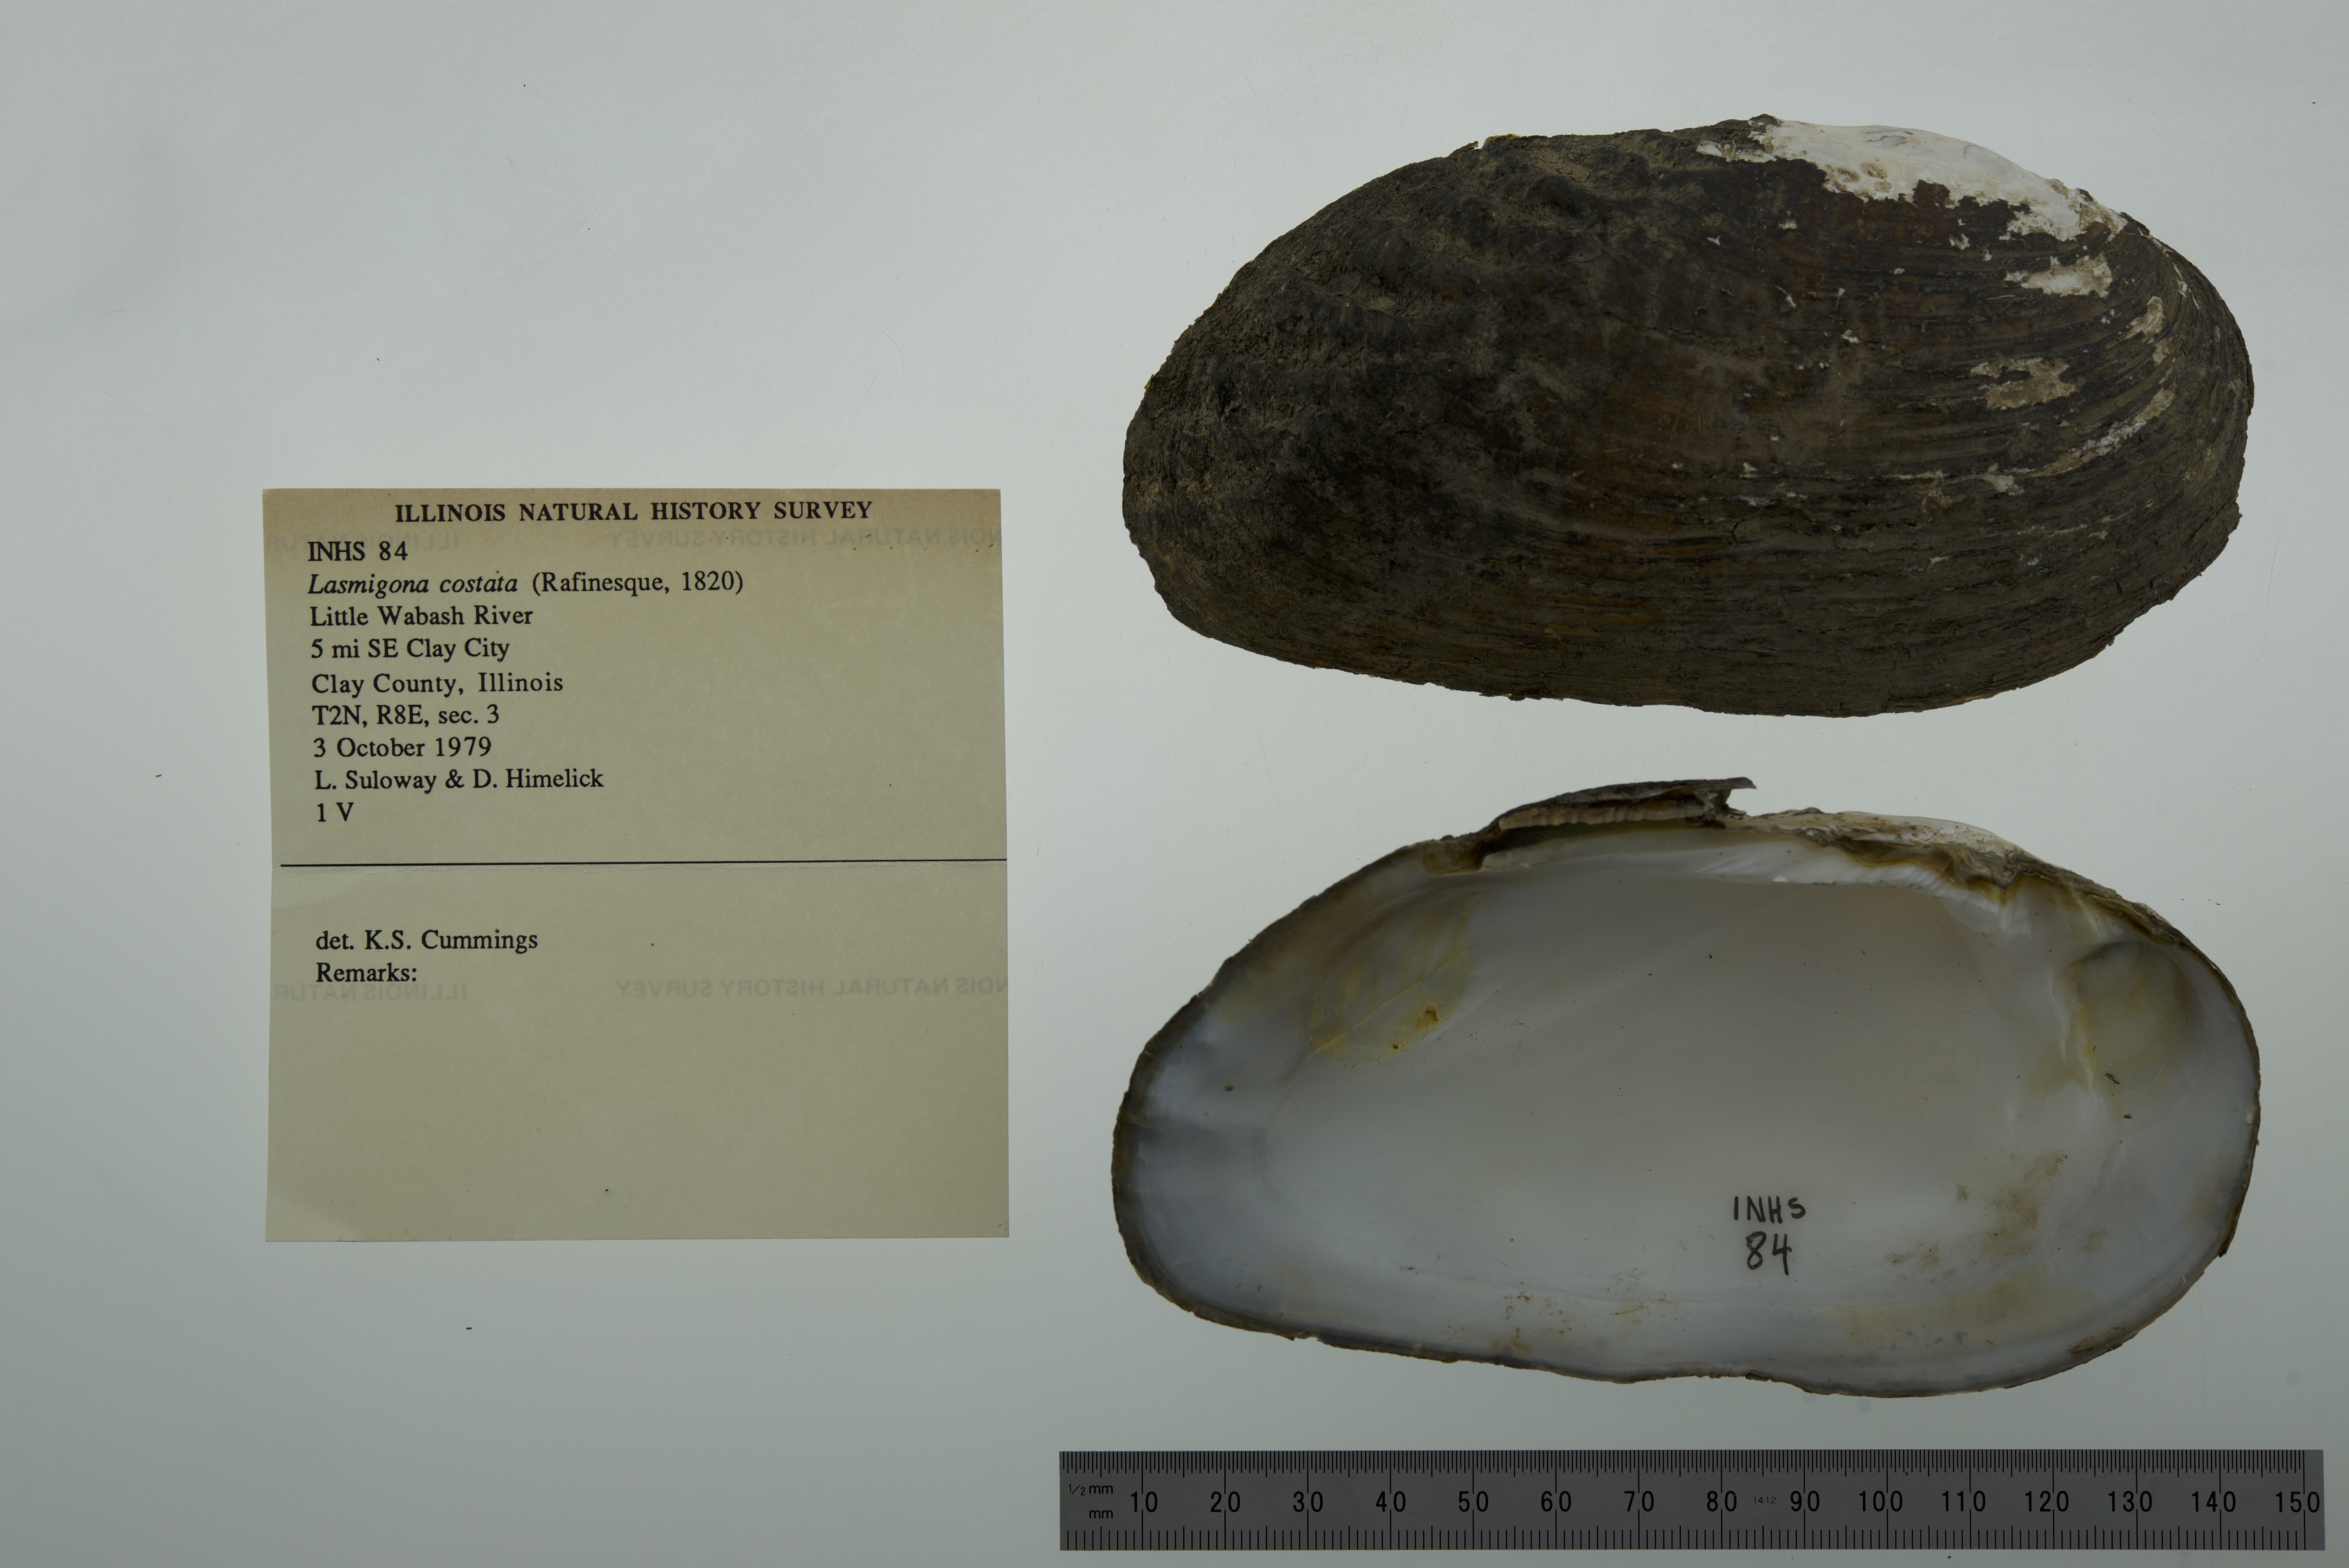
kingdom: Animalia
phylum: Mollusca
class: Bivalvia
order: Unionida
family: Unionidae
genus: Lasmigona
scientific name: Lasmigona costata
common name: Flutedshell
